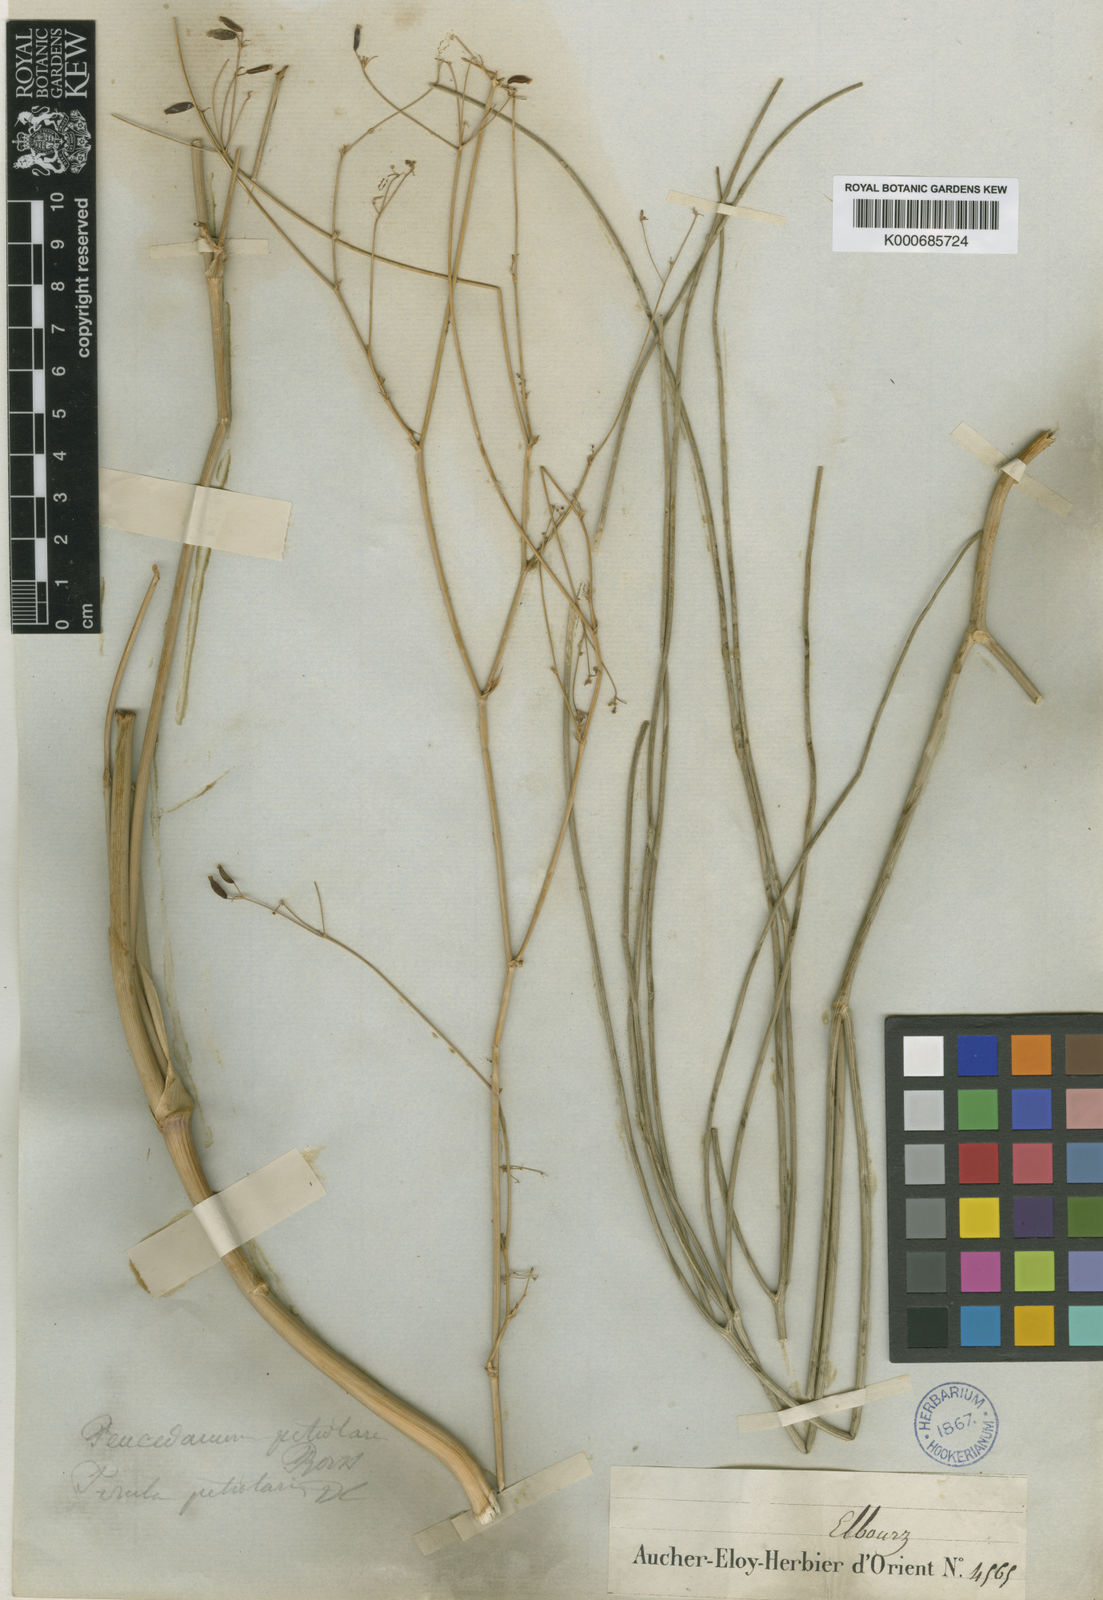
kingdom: Plantae
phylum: Tracheophyta
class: Magnoliopsida
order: Apiales
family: Apiaceae
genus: Peucedanum
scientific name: Peucedanum
